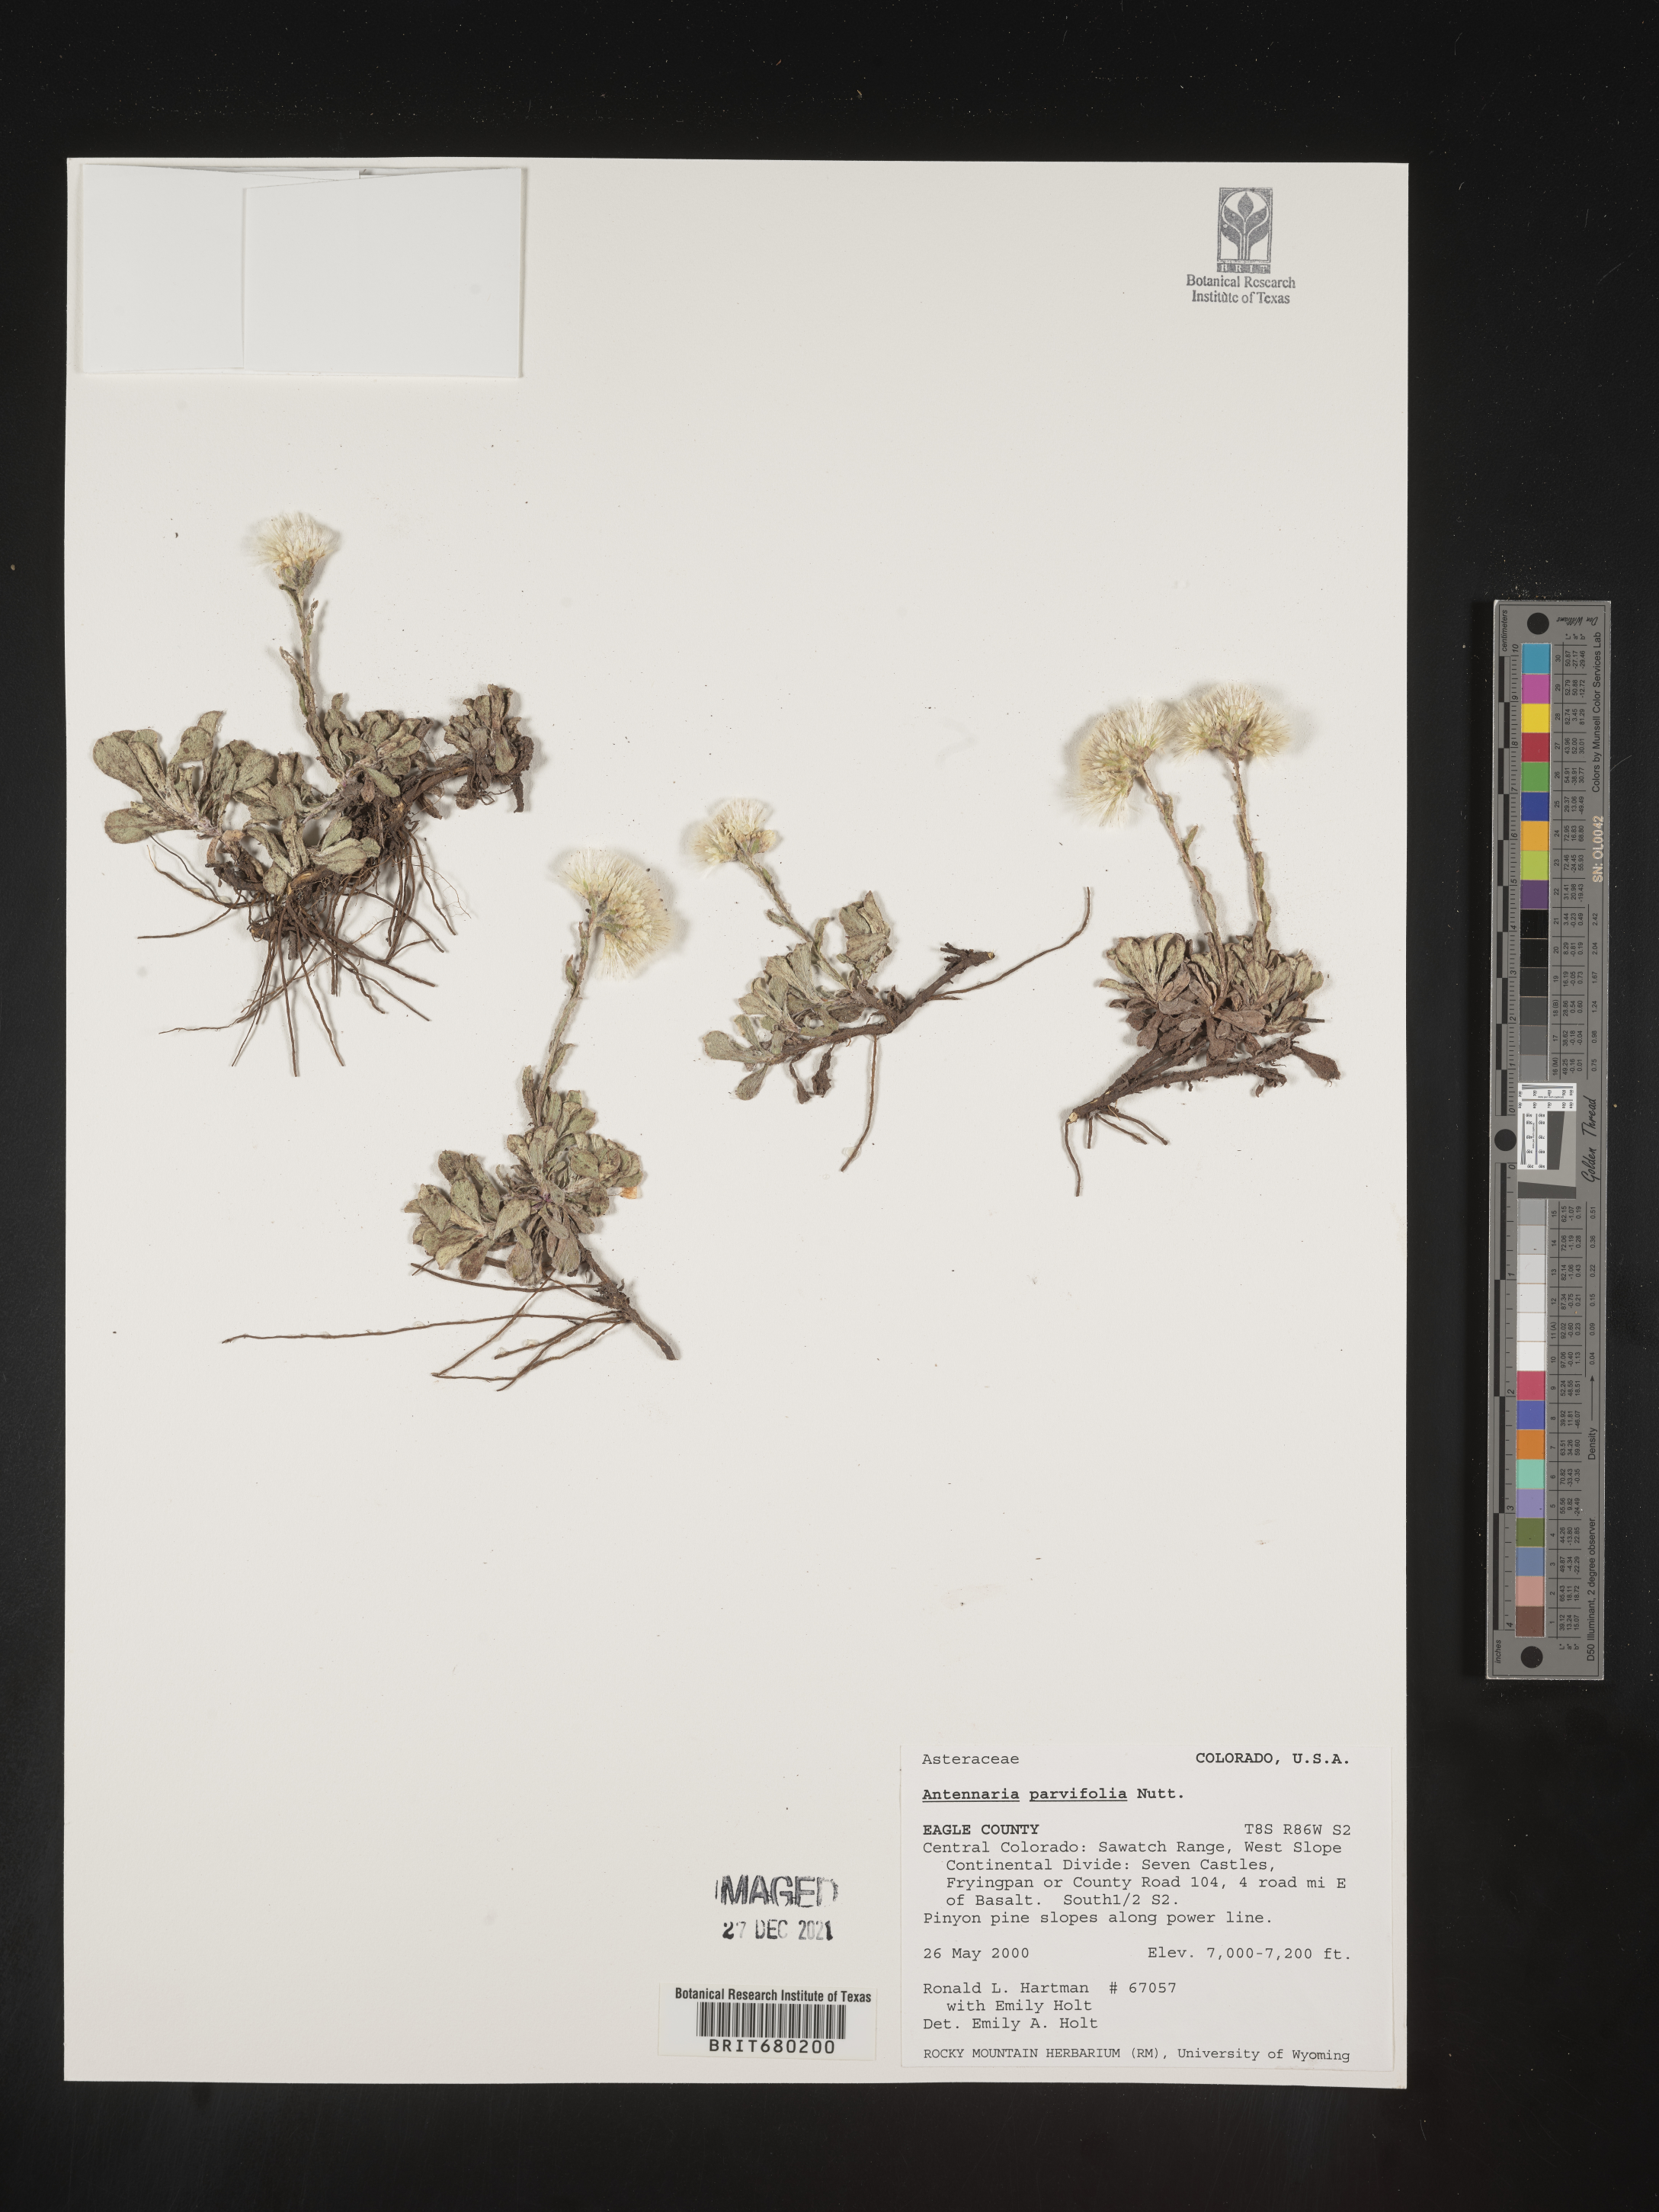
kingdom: Plantae
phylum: Tracheophyta
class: Magnoliopsida
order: Asterales
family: Asteraceae
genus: Antennaria
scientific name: Antennaria plantaginifolia
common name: Plantain-leaved pussytoes
